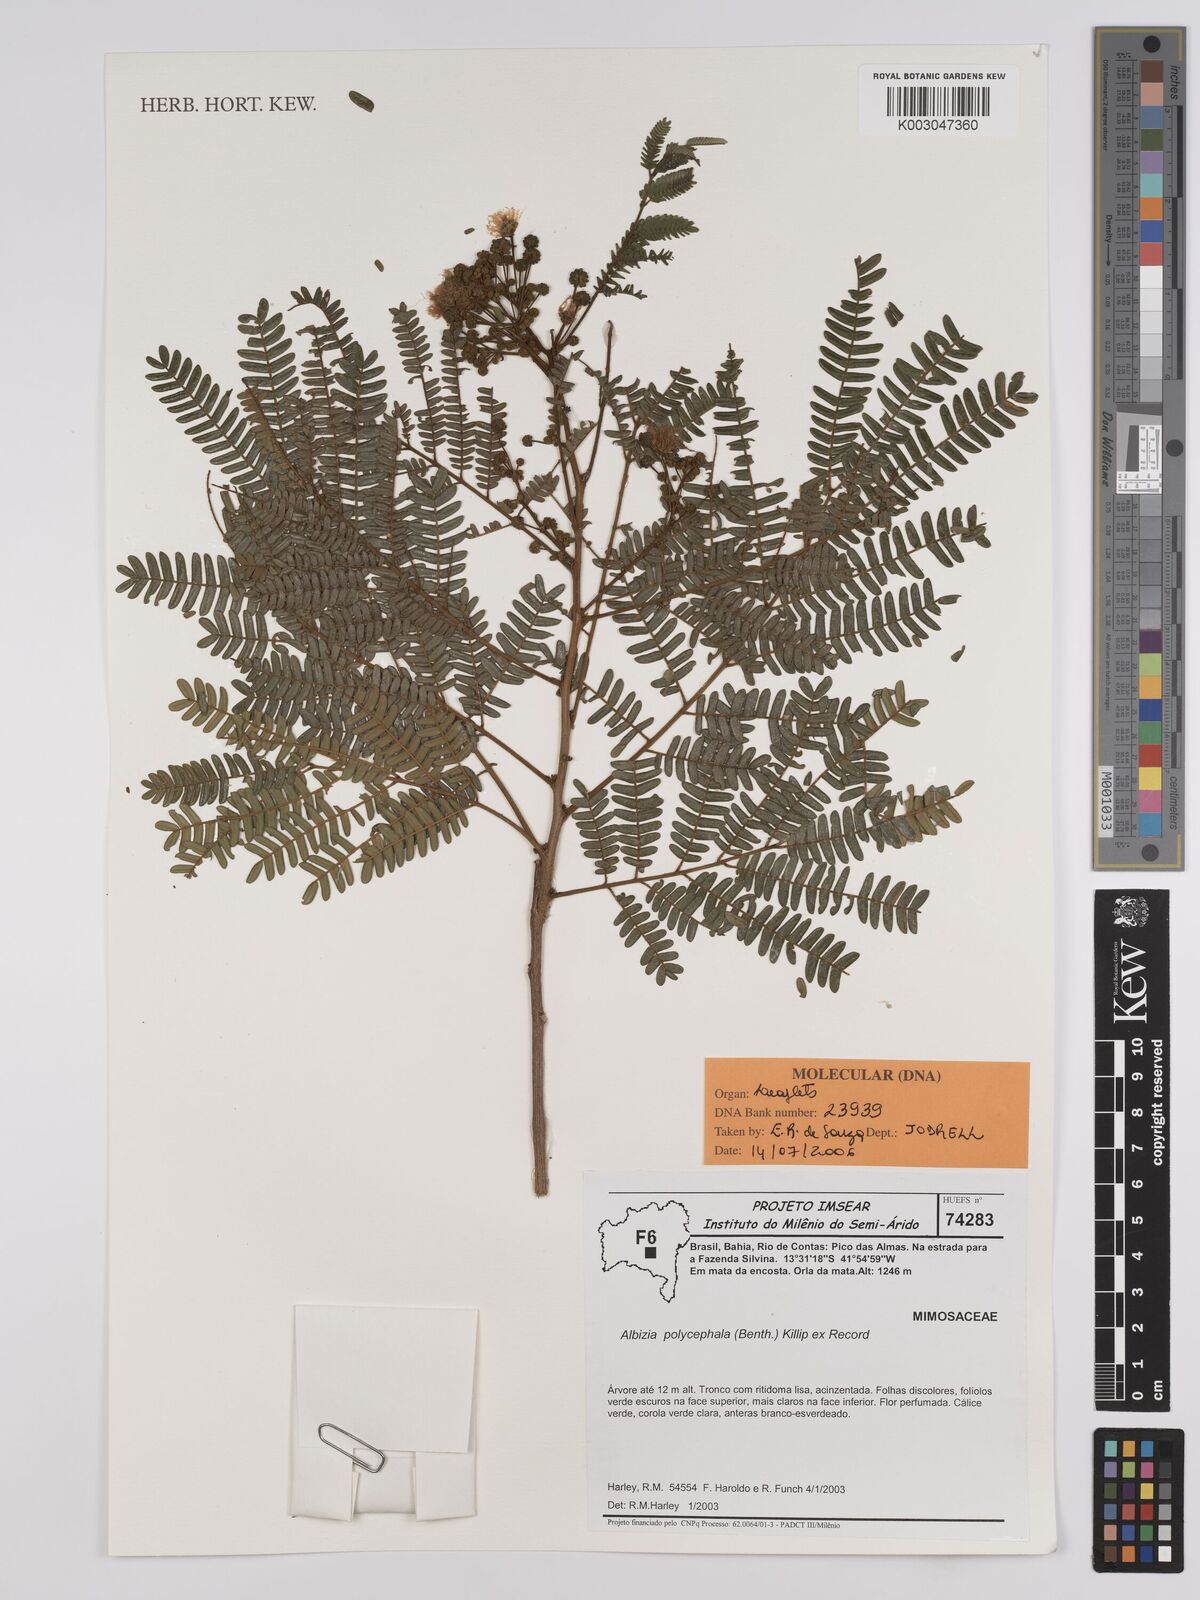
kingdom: Plantae
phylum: Tracheophyta
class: Magnoliopsida
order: Fabales
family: Fabaceae
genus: Albizia
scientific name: Albizia polycephala
